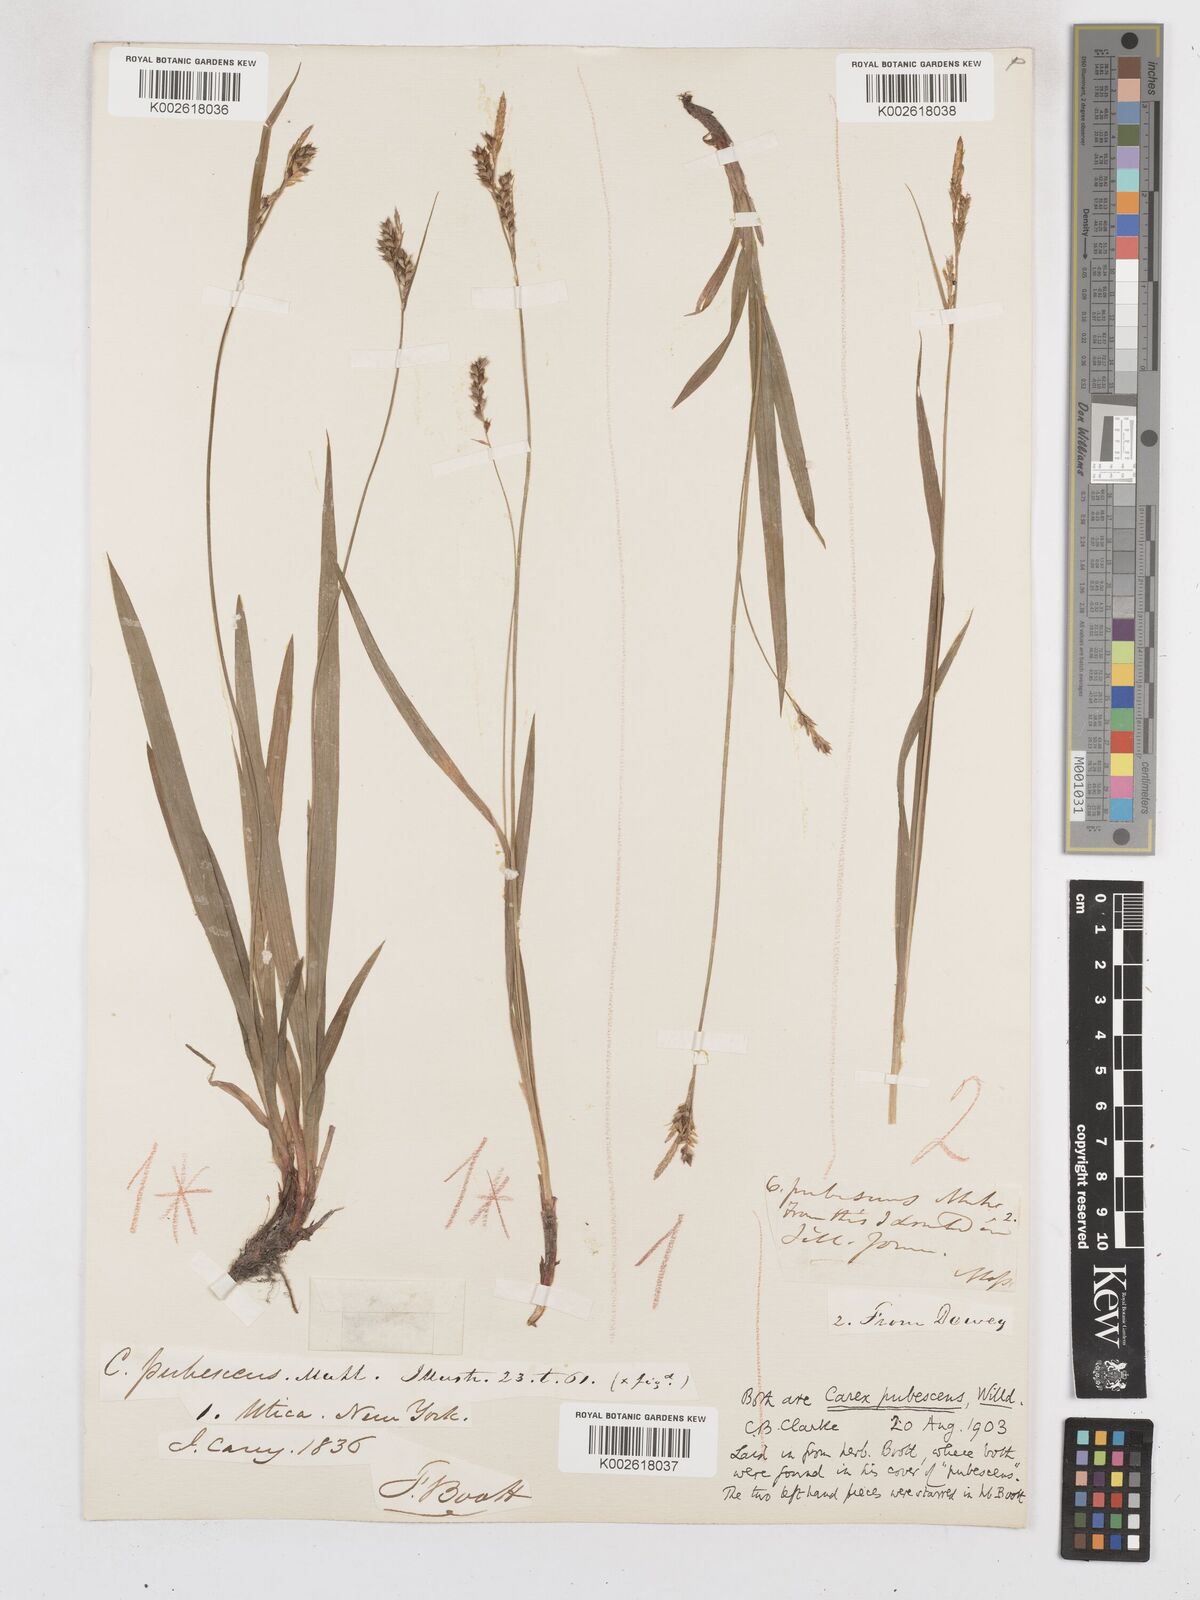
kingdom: Plantae
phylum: Tracheophyta
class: Liliopsida
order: Poales
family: Cyperaceae
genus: Carex
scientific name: Carex hirtifolia
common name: Hairy sedge
